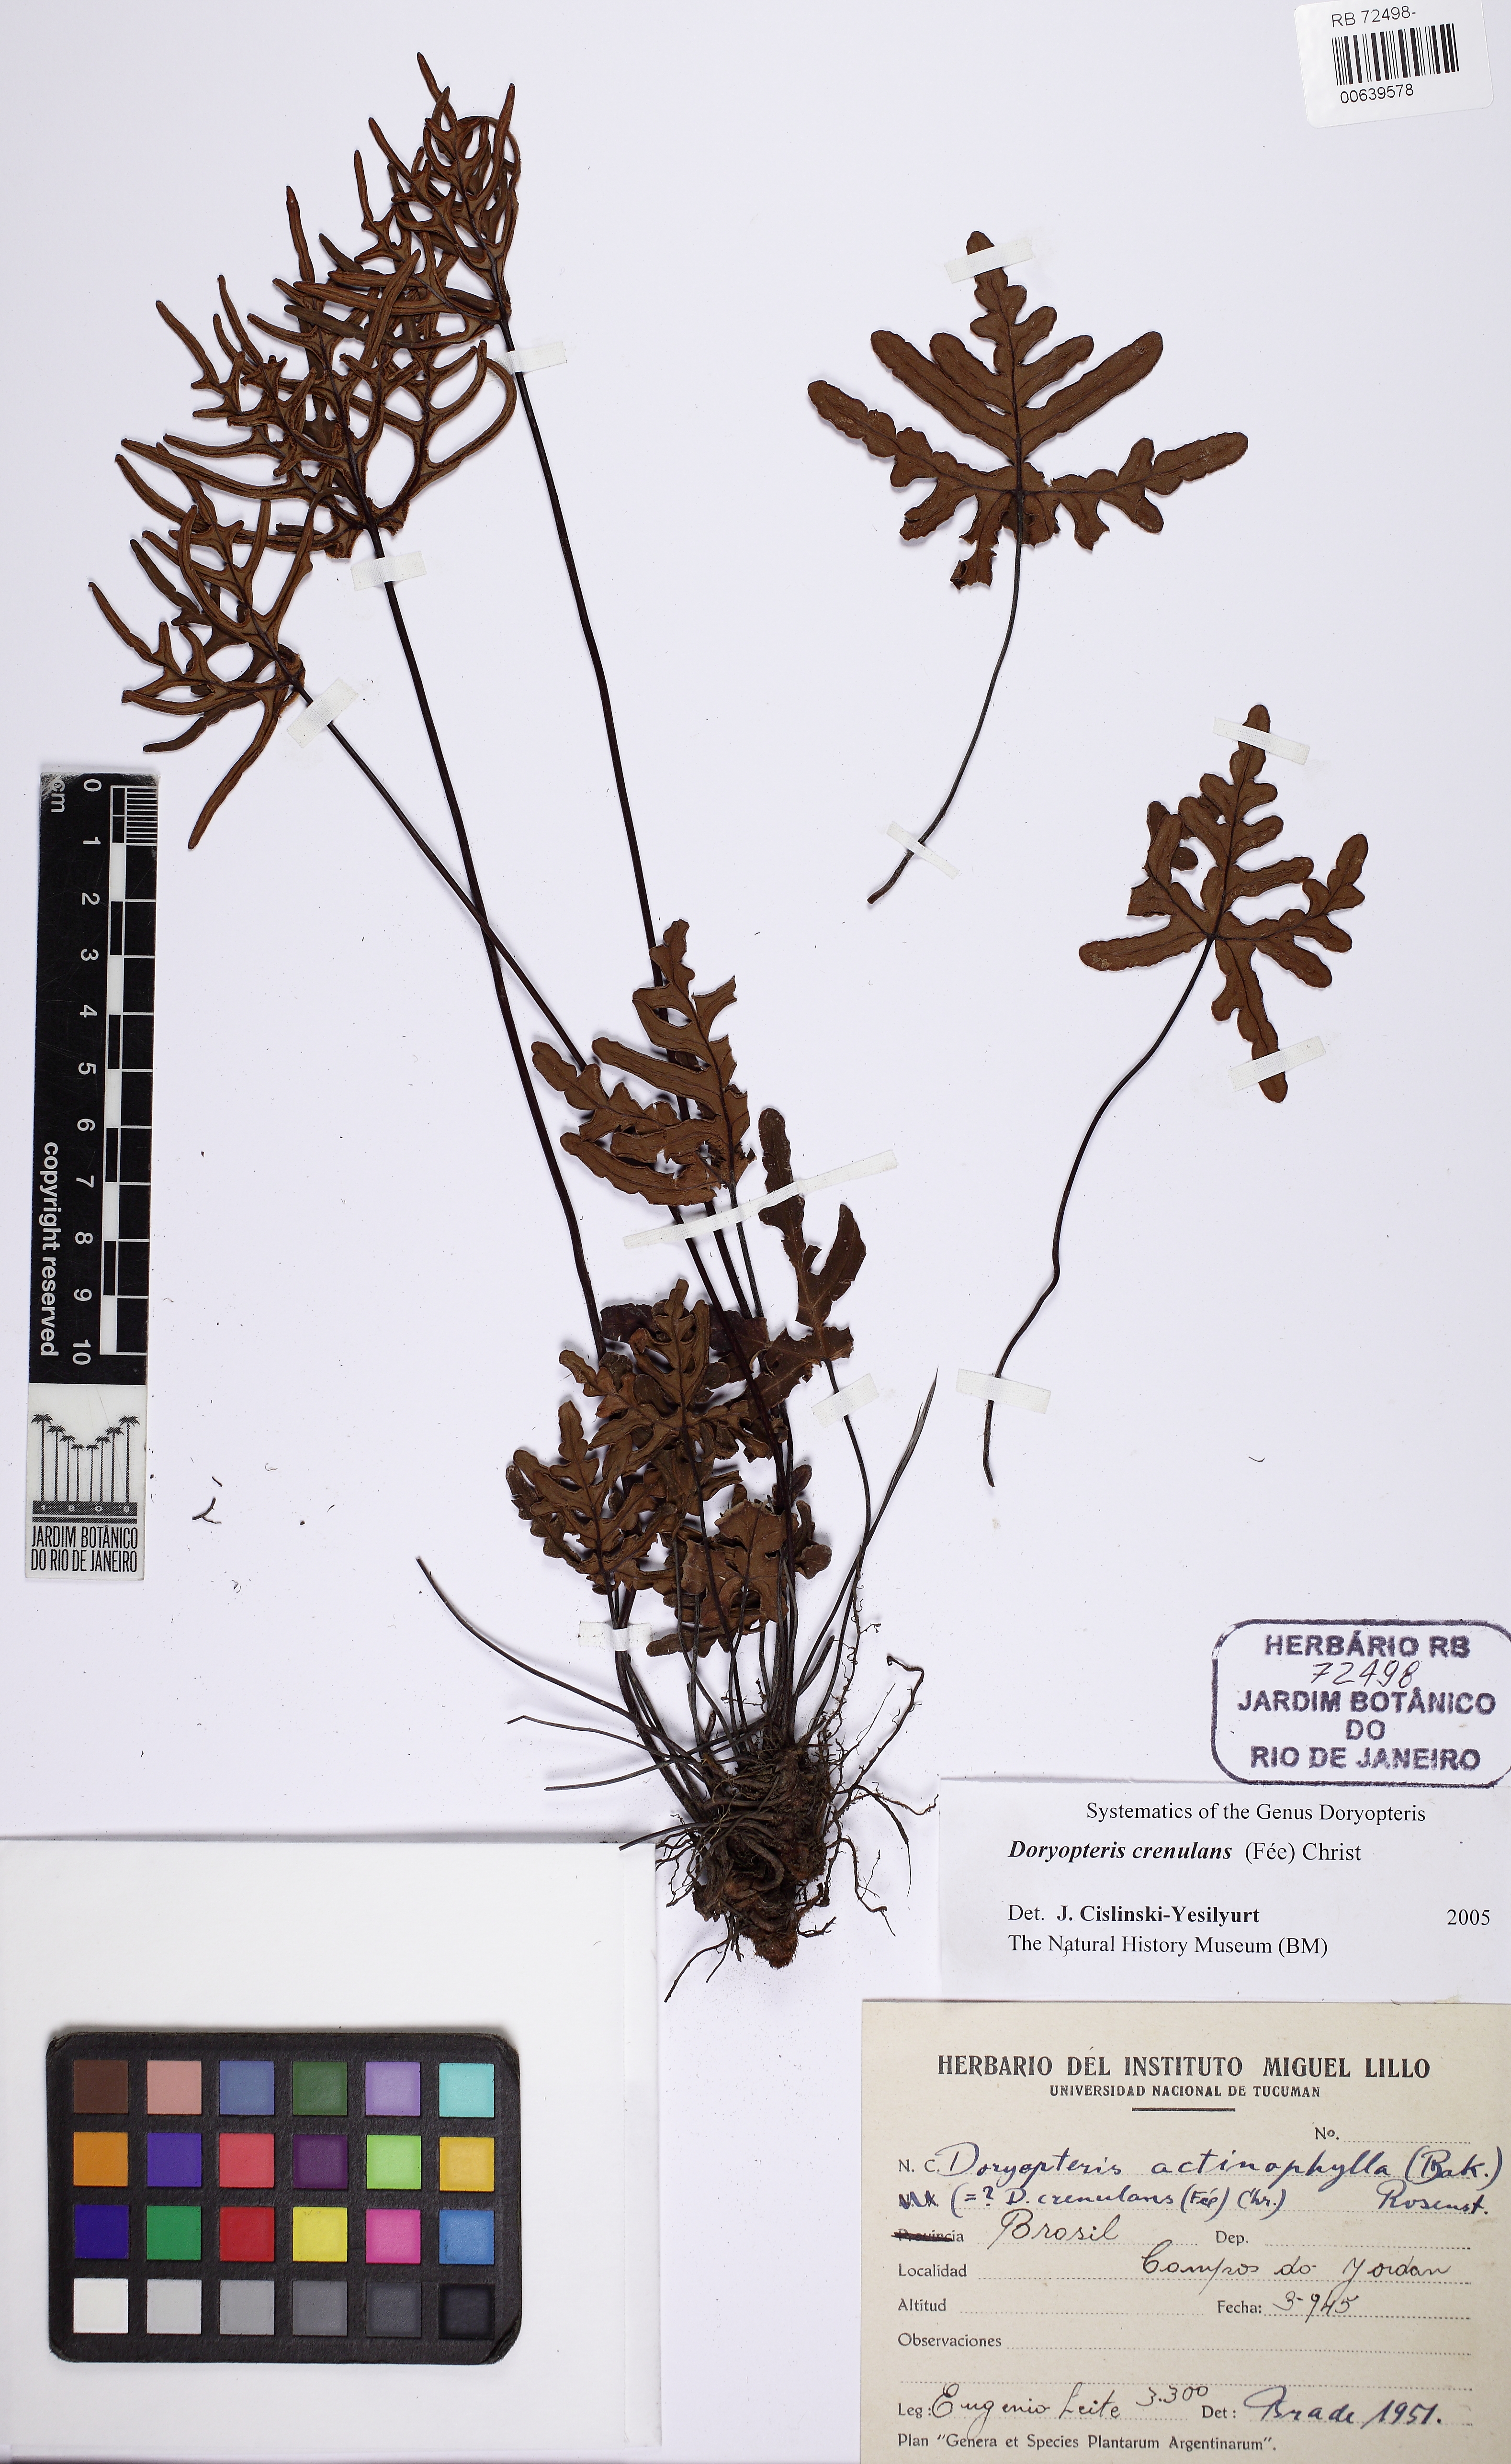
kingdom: Plantae
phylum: Tracheophyta
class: Polypodiopsida
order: Polypodiales
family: Pteridaceae
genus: Lytoneuron
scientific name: Lytoneuron crenulans
